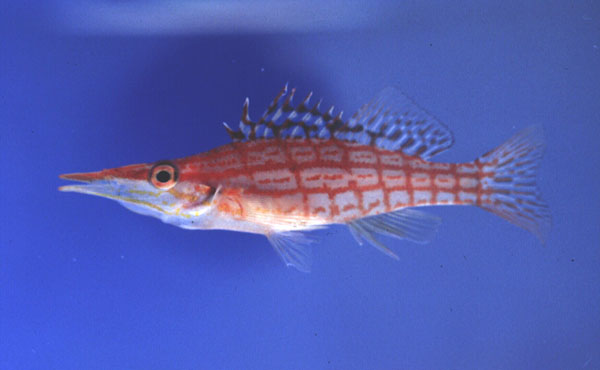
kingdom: Animalia
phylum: Chordata
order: Perciformes
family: Cirrhitidae
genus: Oxycirrhites
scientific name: Oxycirrhites typus
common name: Longnose hawkfish
